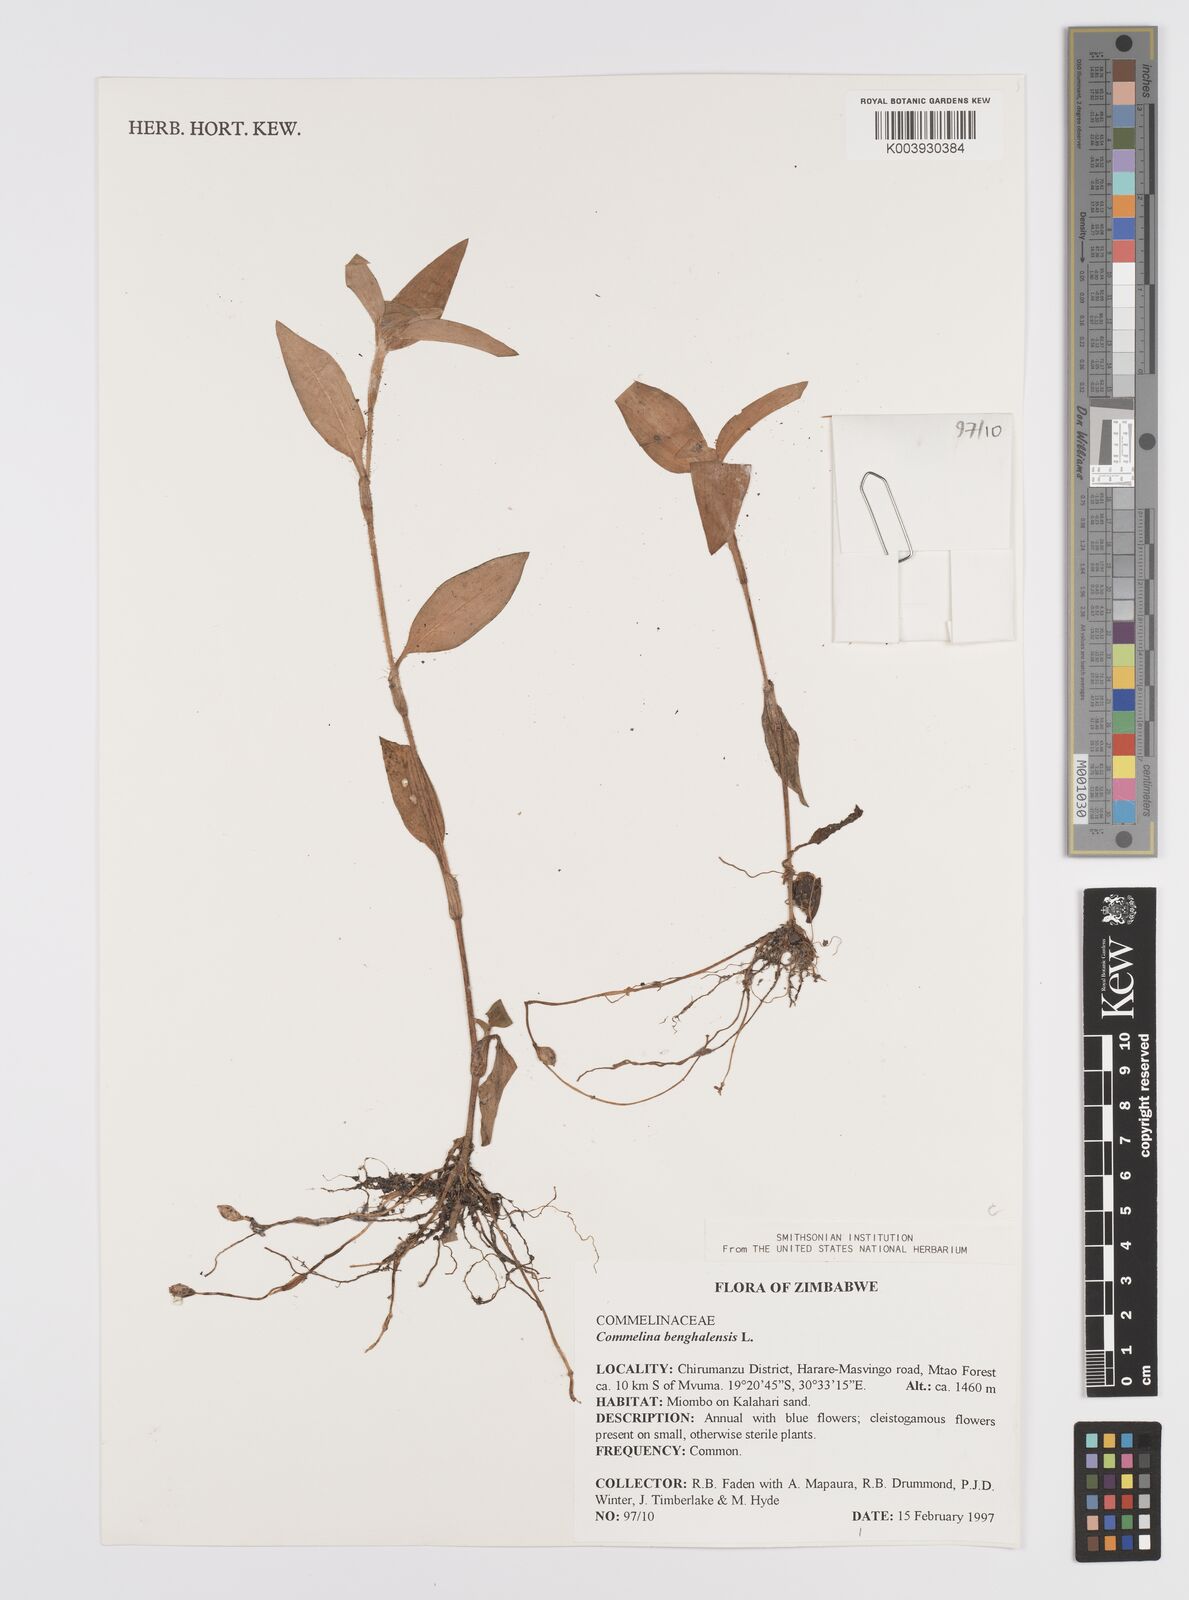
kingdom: Plantae
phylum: Tracheophyta
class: Liliopsida
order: Commelinales
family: Commelinaceae
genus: Commelina
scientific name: Commelina benghalensis
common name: Jio
